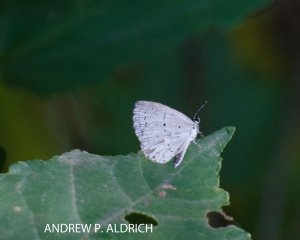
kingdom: Animalia
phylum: Arthropoda
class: Insecta
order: Lepidoptera
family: Lycaenidae
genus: Cyaniris
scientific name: Cyaniris neglecta
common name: Summer Azure
